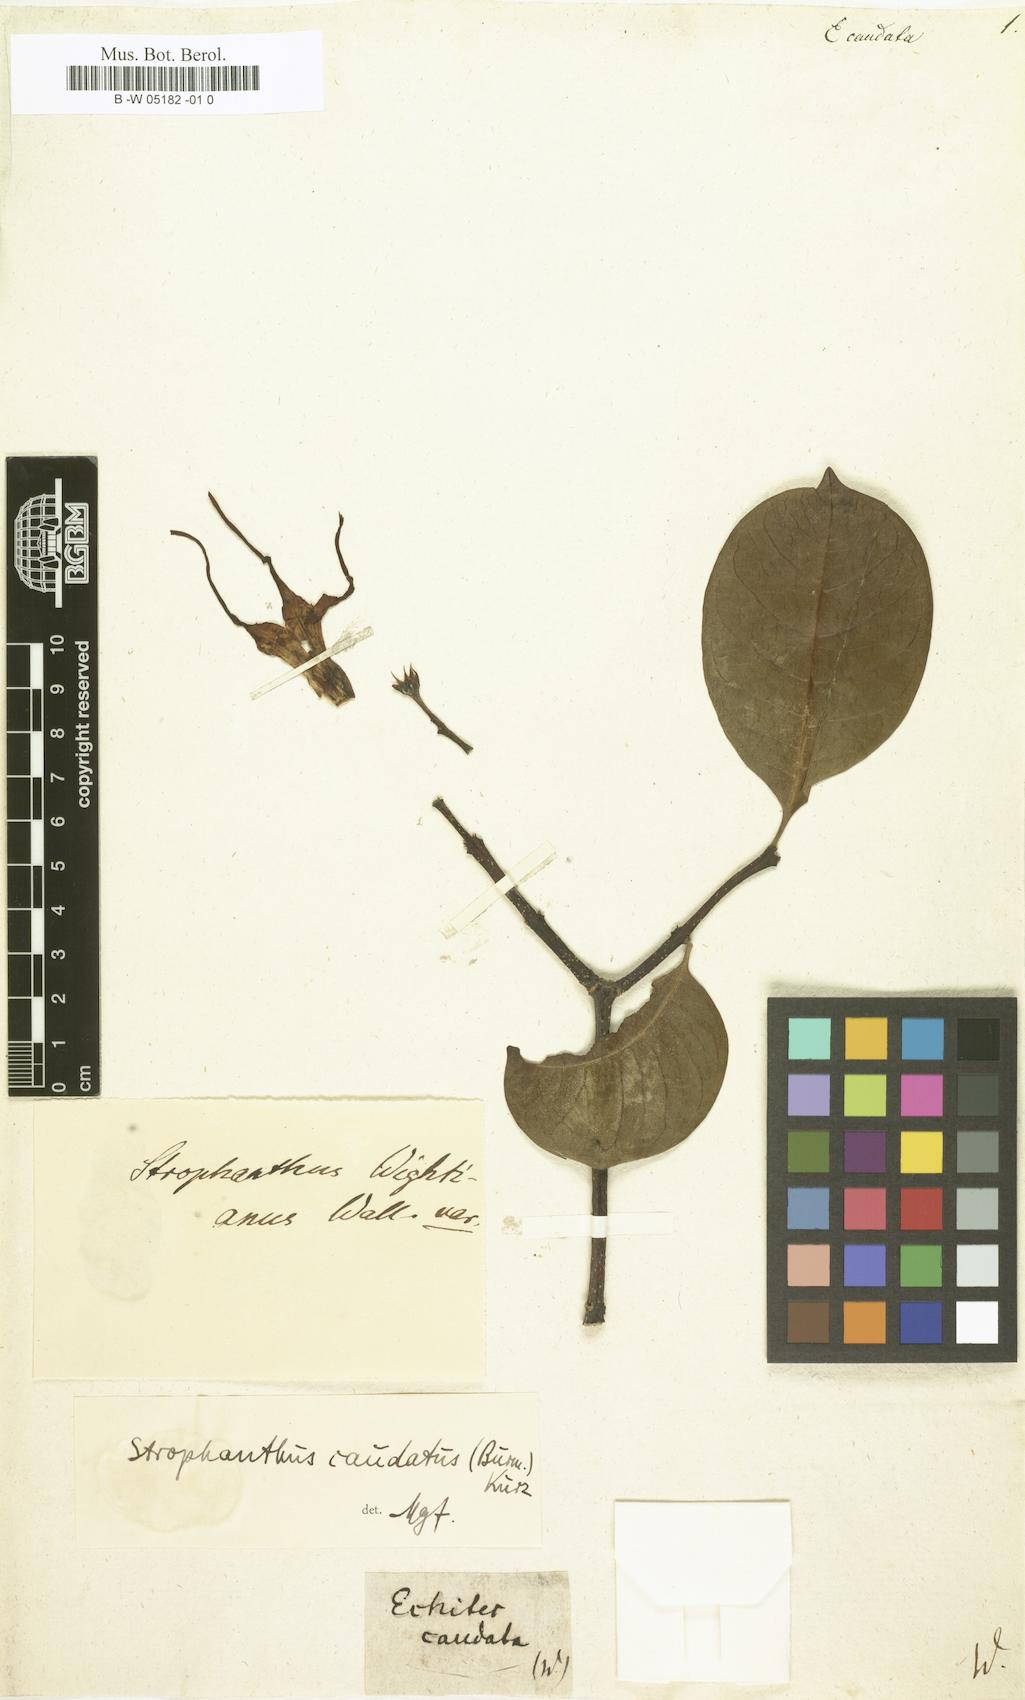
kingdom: Plantae
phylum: Tracheophyta
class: Magnoliopsida
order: Gentianales
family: Apocynaceae
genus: Strophanthus
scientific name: Strophanthus caudatus
